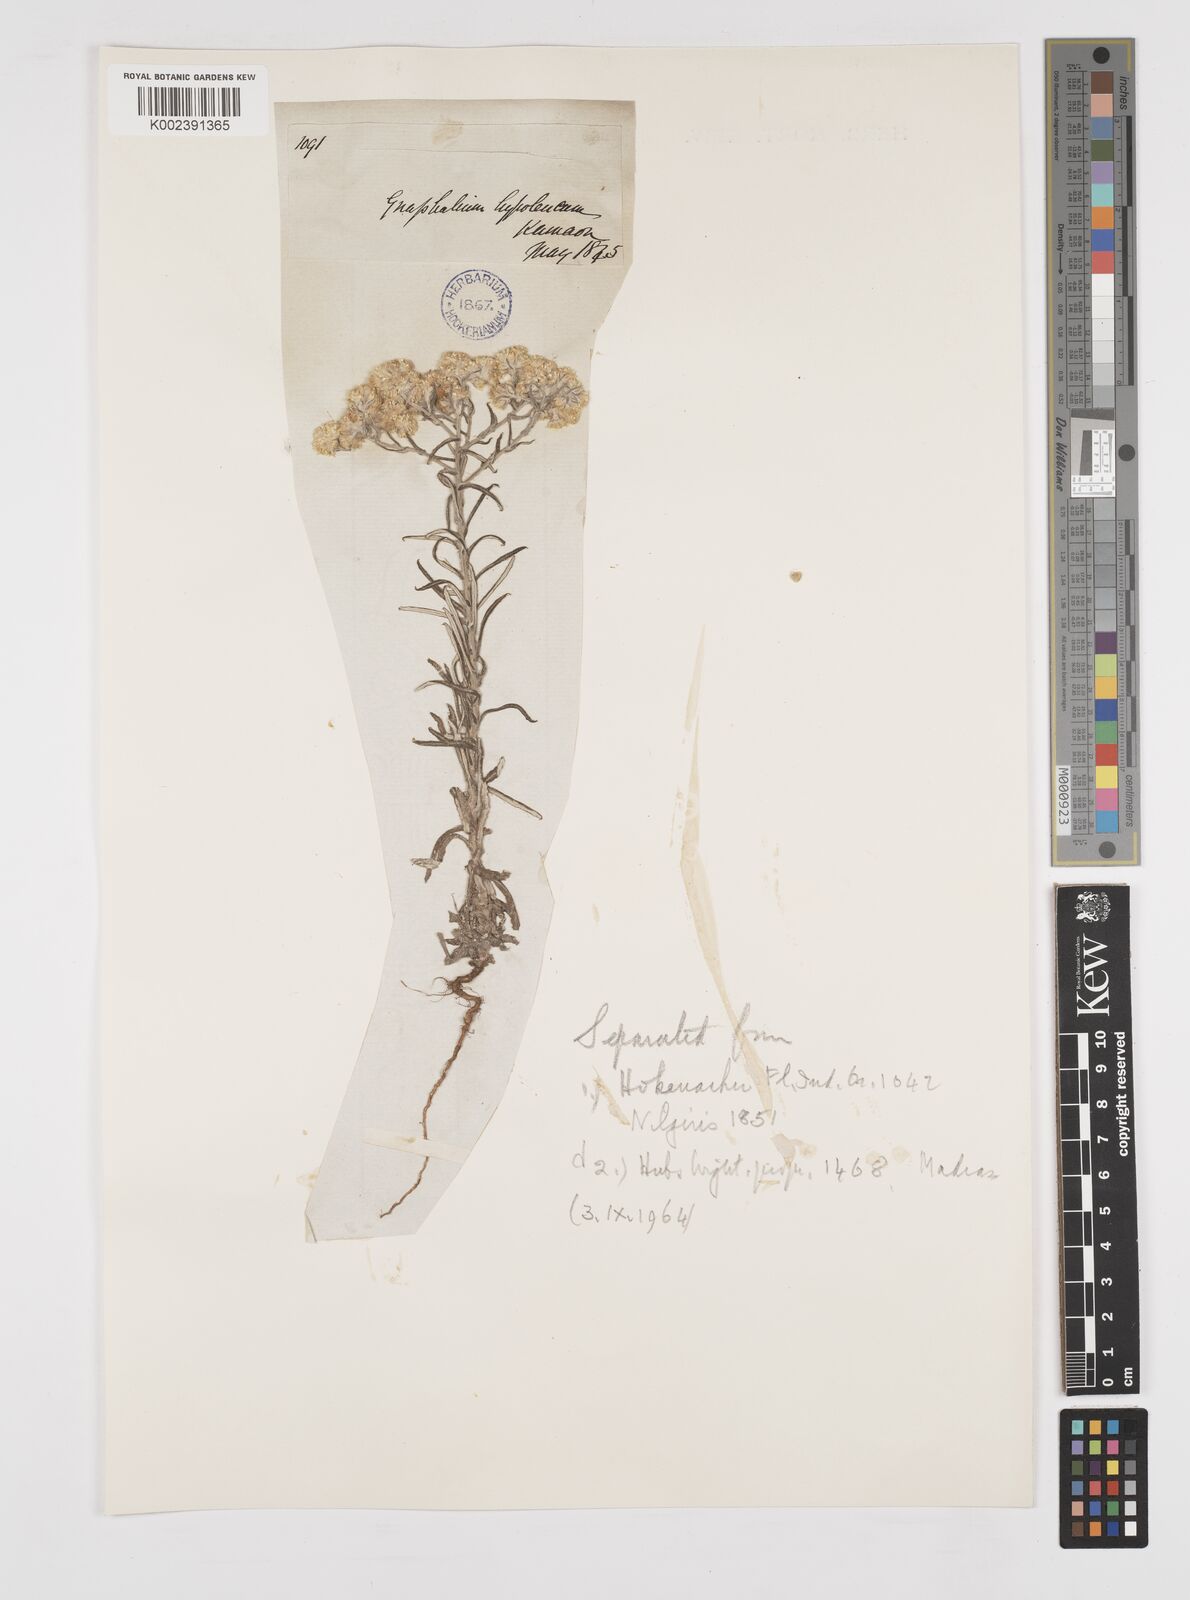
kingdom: Plantae
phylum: Tracheophyta
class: Magnoliopsida
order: Asterales
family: Asteraceae
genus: Pseudognaphalium
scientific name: Pseudognaphalium hypoleucum
